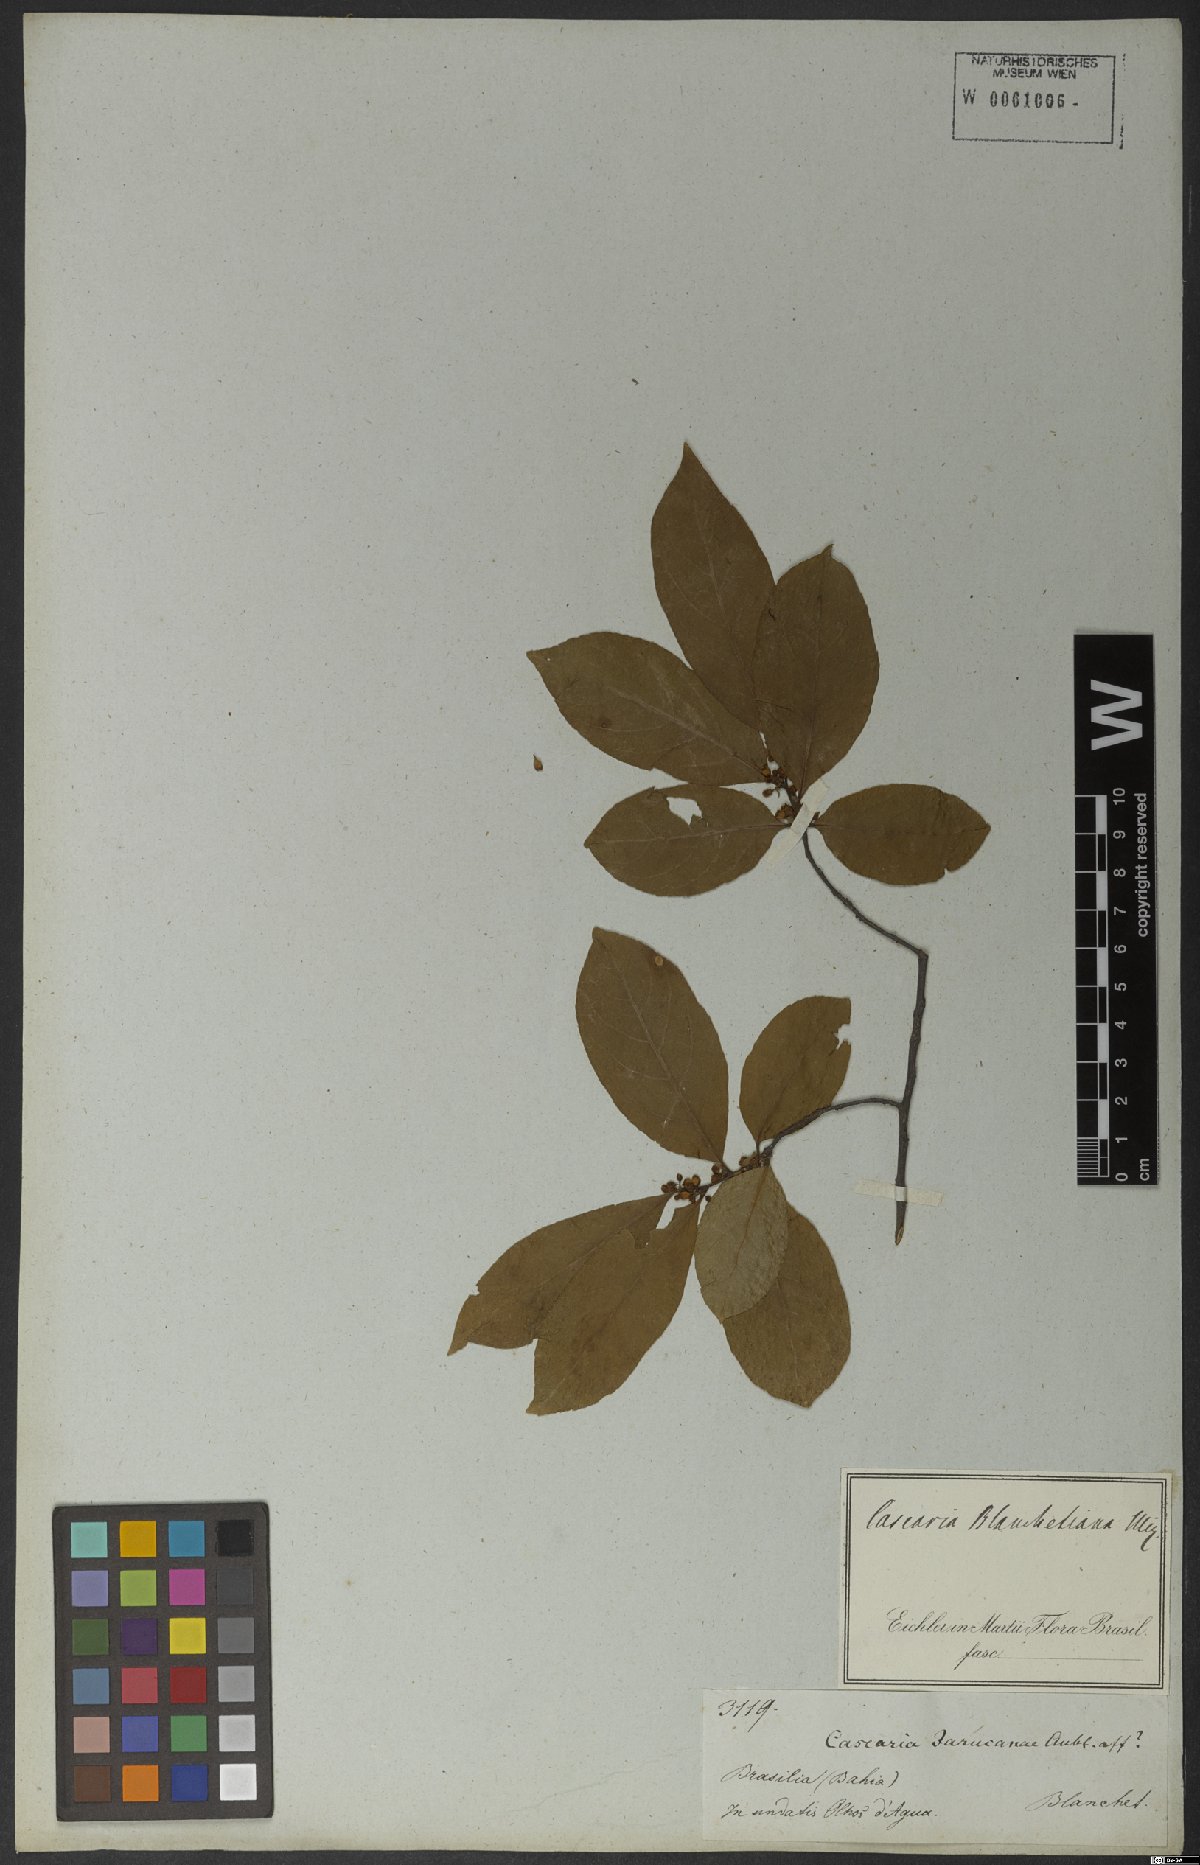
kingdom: Plantae
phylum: Tracheophyta
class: Magnoliopsida
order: Malpighiales
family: Salicaceae
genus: Casearia
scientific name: Casearia ulmifolia
